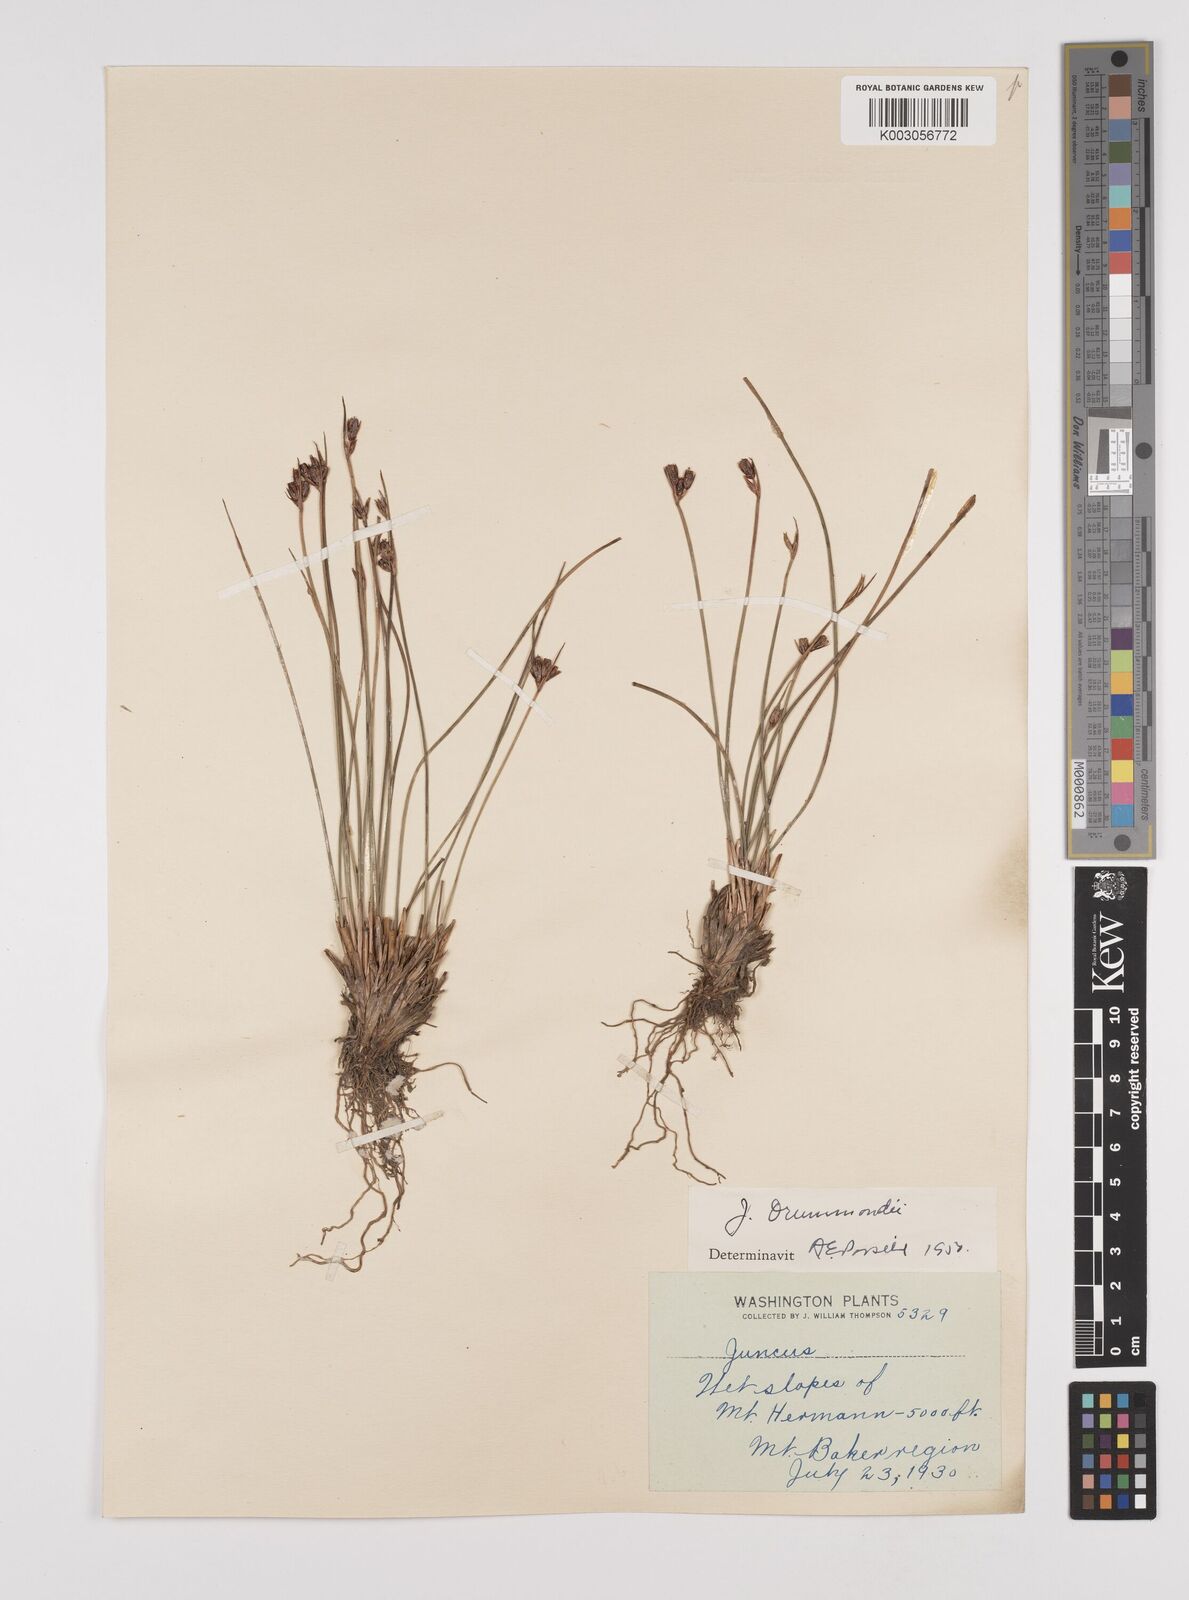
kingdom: Plantae
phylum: Tracheophyta
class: Liliopsida
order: Poales
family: Juncaceae
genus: Juncus
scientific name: Juncus drummondii
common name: Drummond's rush
